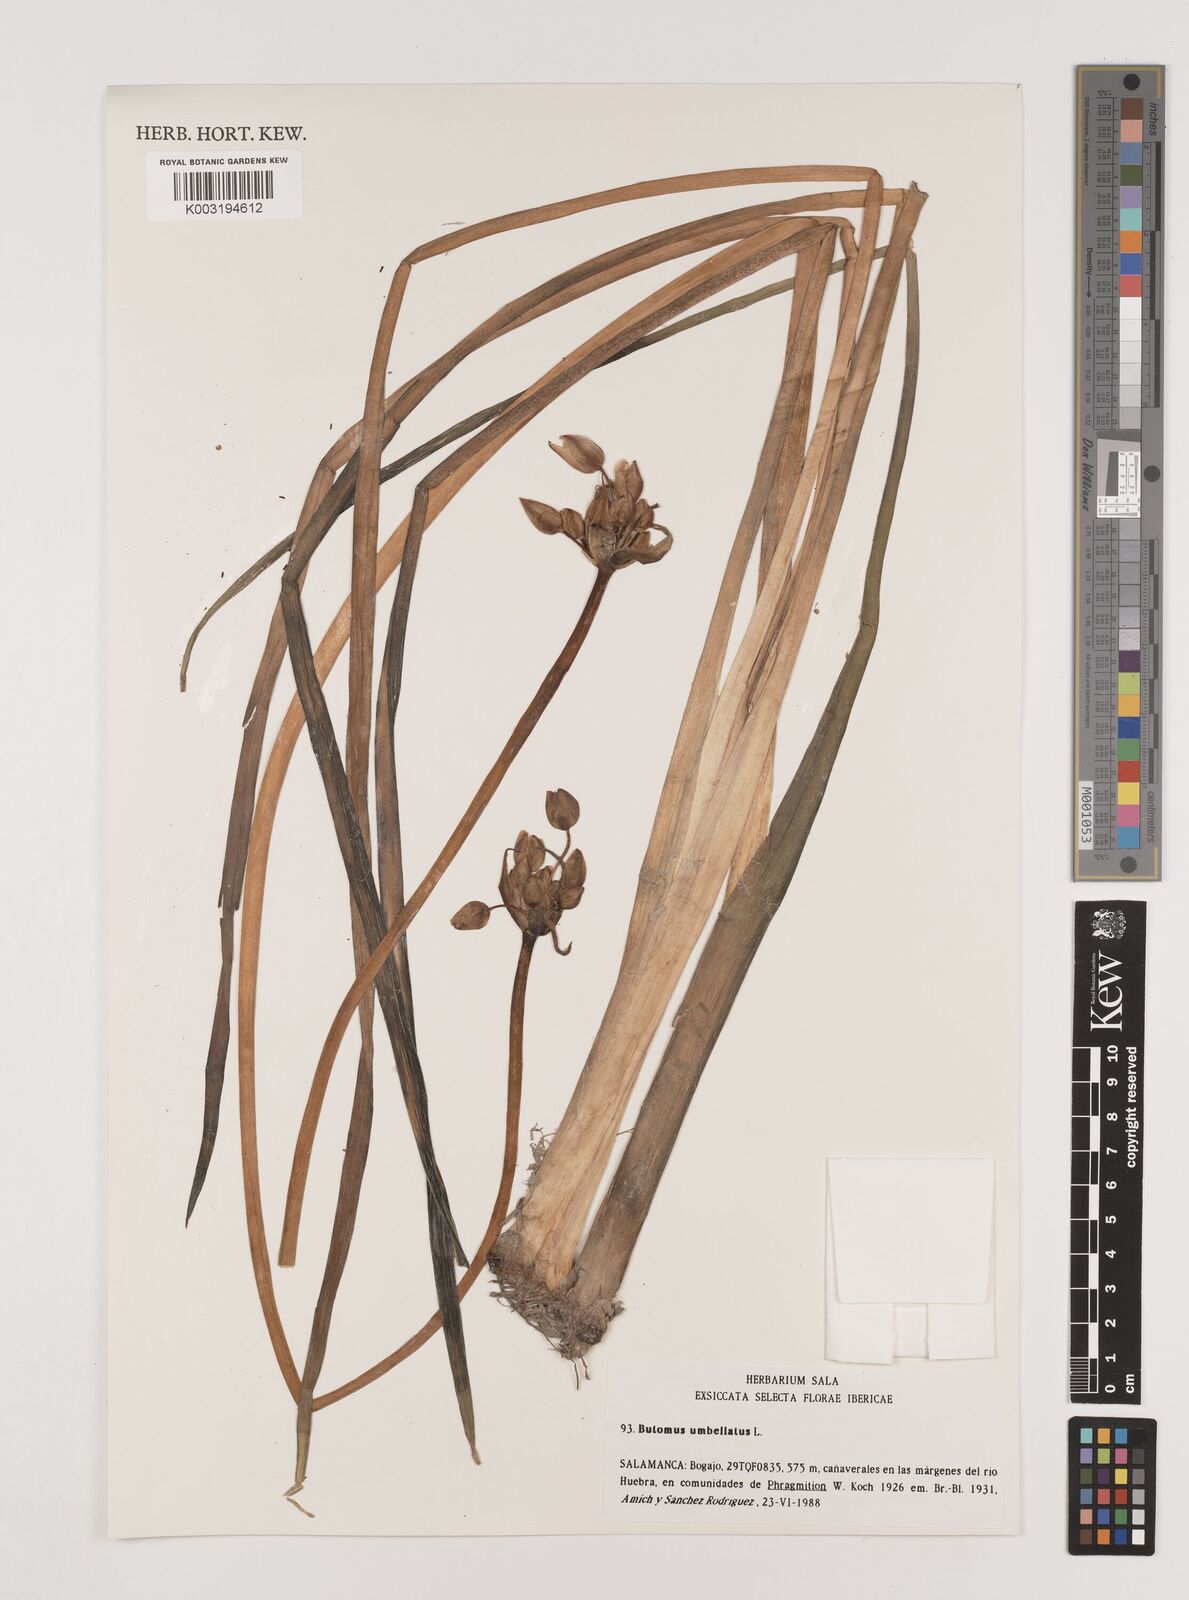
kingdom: Plantae
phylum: Tracheophyta
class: Liliopsida
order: Alismatales
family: Butomaceae
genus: Butomus
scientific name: Butomus umbellatus
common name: Flowering-rush
